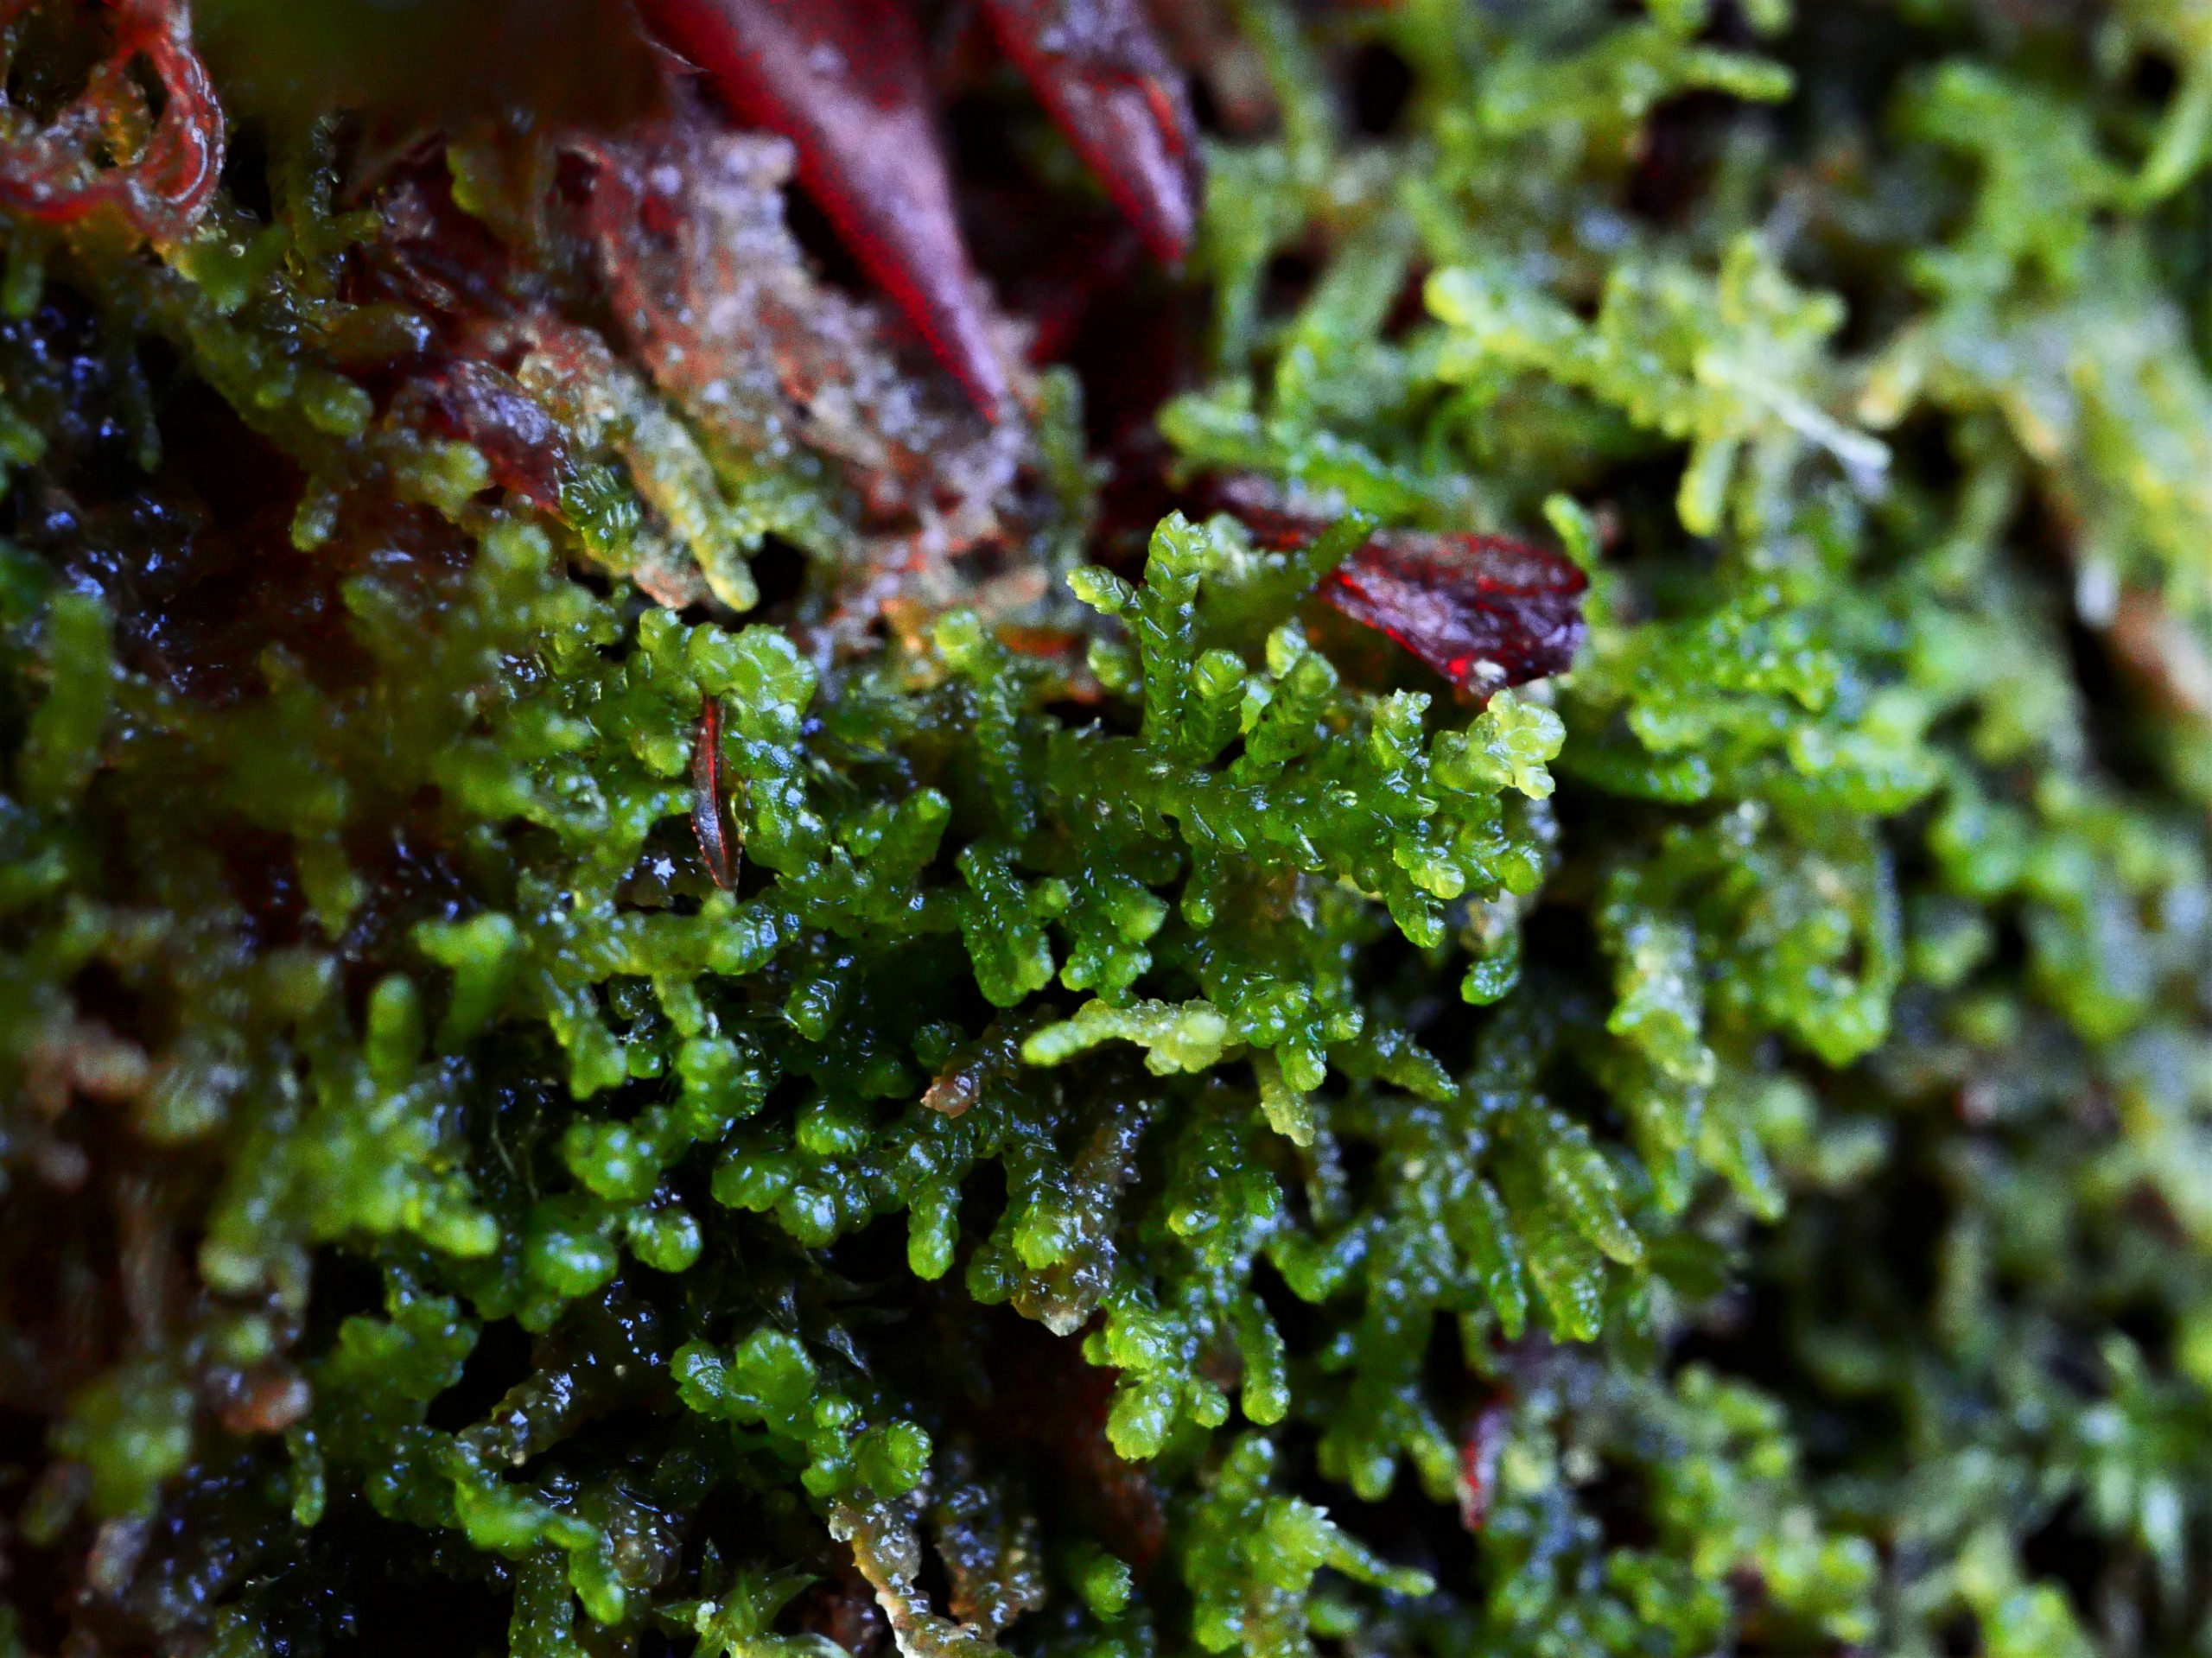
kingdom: Plantae
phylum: Marchantiophyta
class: Jungermanniopsida
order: Jungermanniales
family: Lepidoziaceae
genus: Lepidozia
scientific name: Lepidozia reptans
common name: Krybende fingermos
